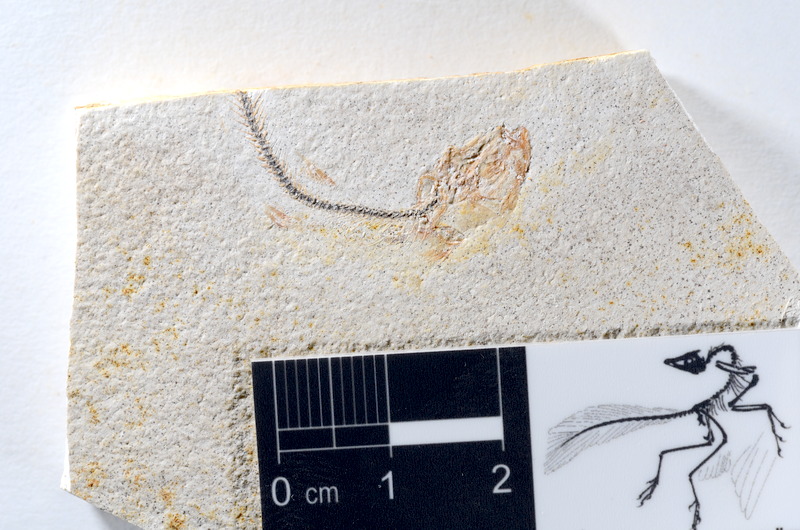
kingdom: Animalia
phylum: Chordata
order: Salmoniformes
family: Orthogonikleithridae
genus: Orthogonikleithrus
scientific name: Orthogonikleithrus hoelli
